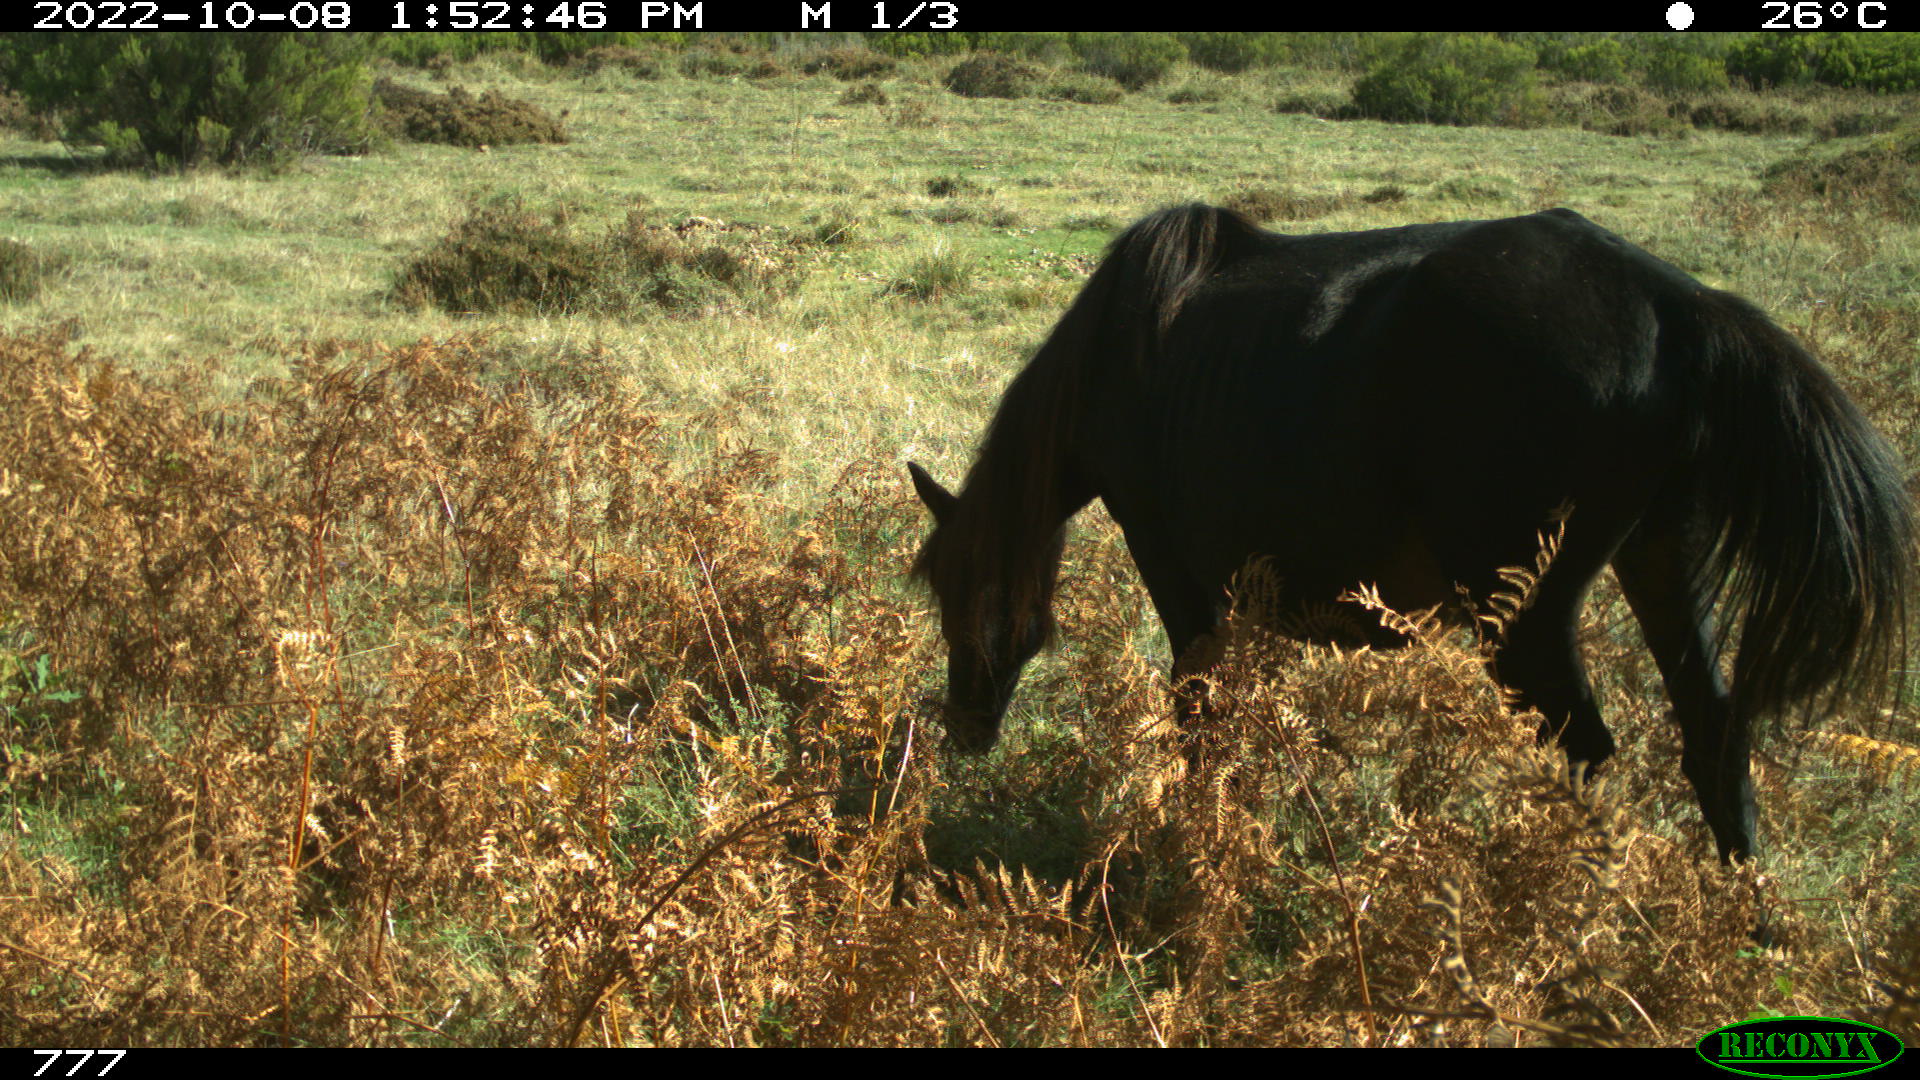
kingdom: Animalia
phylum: Chordata
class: Mammalia
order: Perissodactyla
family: Equidae
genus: Equus
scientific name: Equus caballus
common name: Horse
